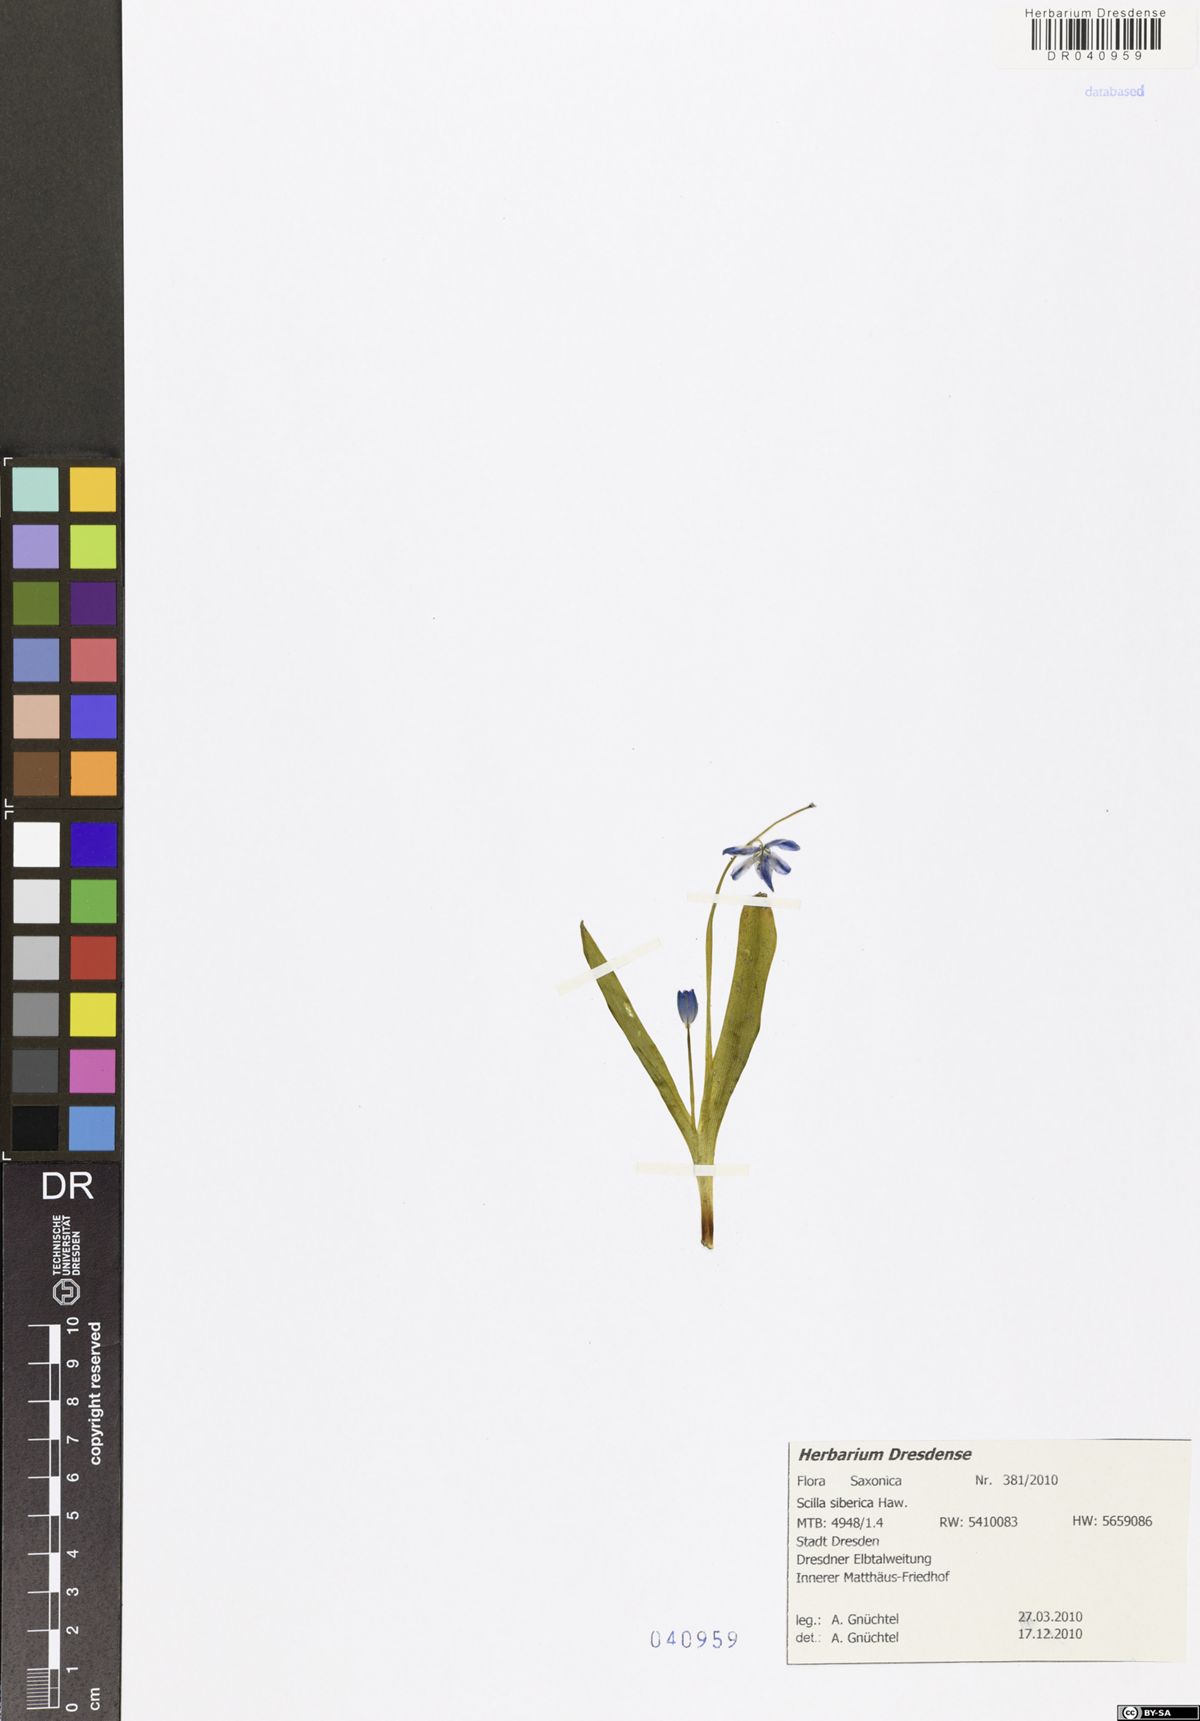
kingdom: Plantae
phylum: Tracheophyta
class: Liliopsida
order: Asparagales
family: Asparagaceae
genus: Scilla
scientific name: Scilla siberica
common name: Siberian squill
